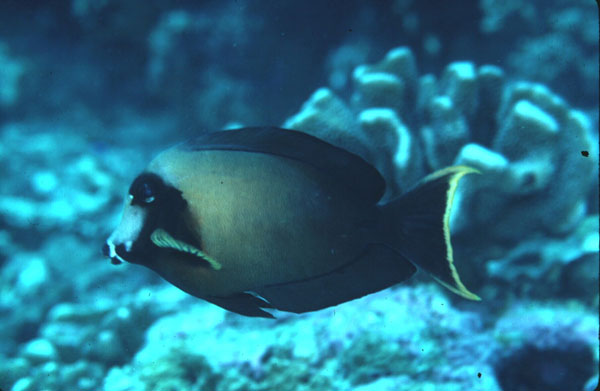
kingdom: Animalia
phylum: Chordata
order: Perciformes
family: Acanthuridae
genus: Acanthurus
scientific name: Acanthurus pyroferus
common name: Chocolate surgeonfish
